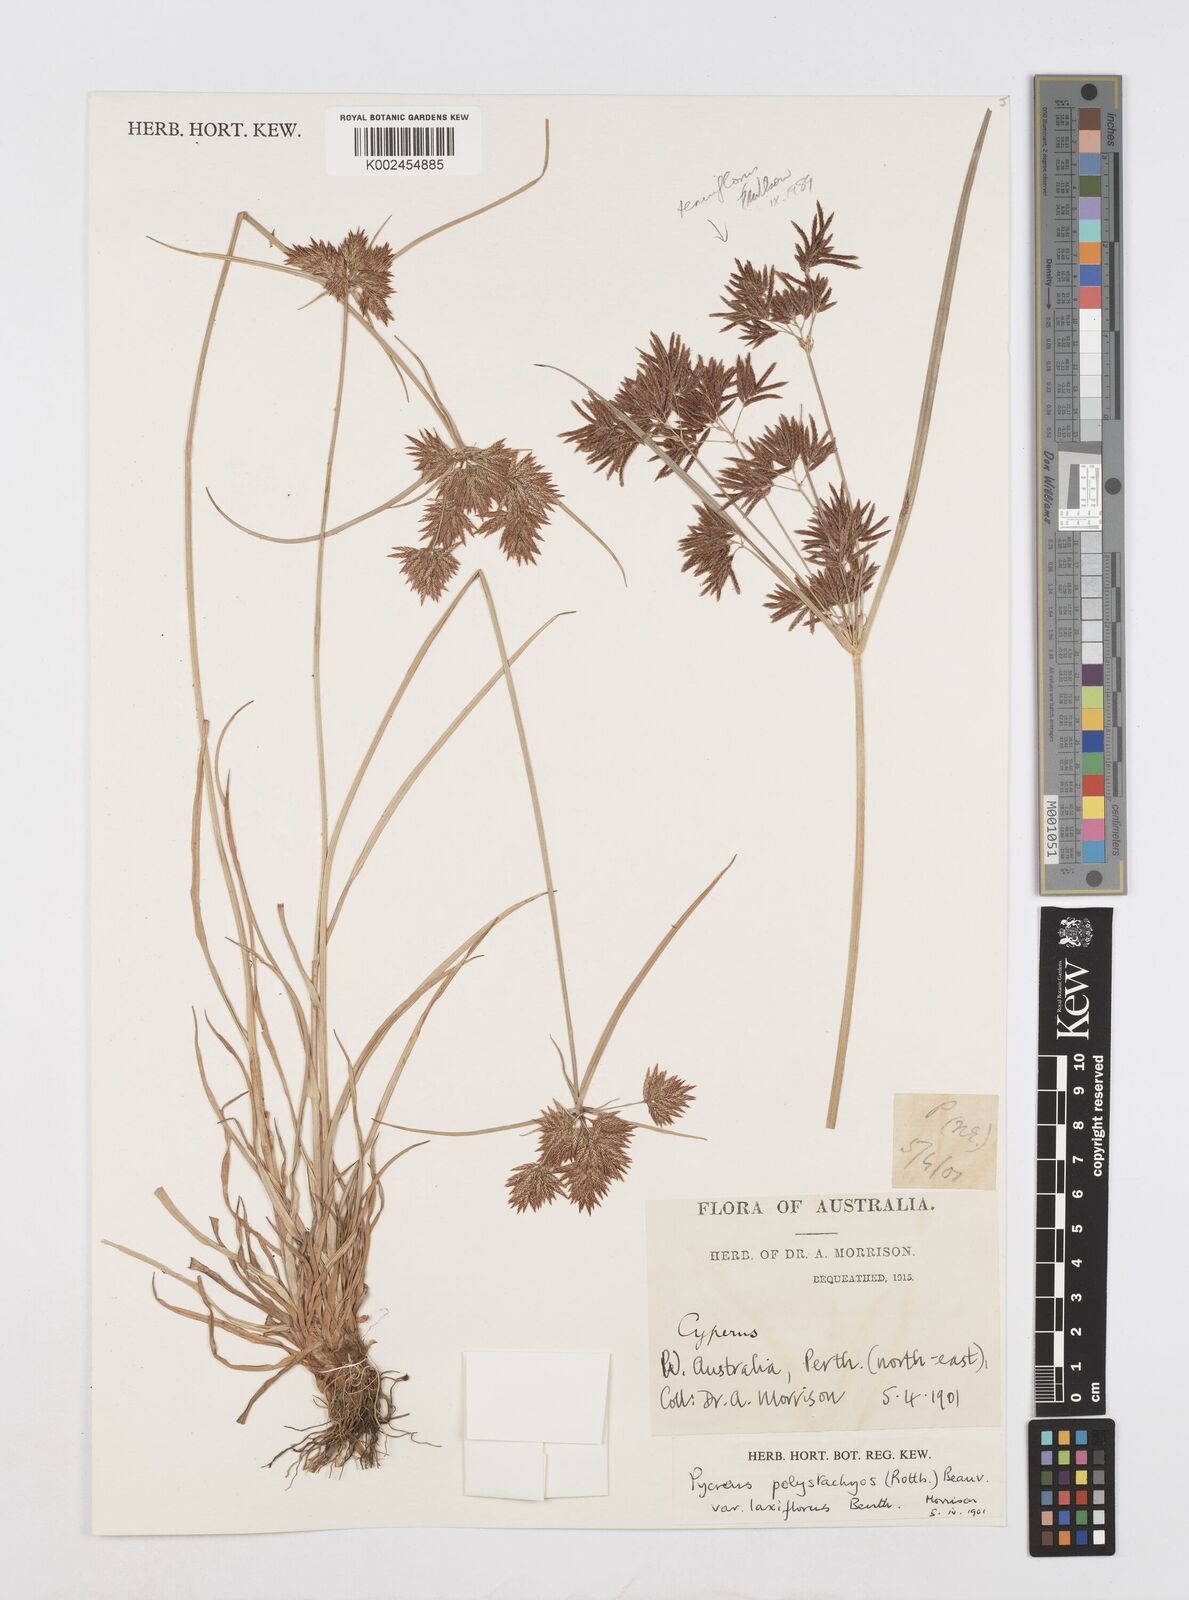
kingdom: Plantae
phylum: Tracheophyta
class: Liliopsida
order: Poales
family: Cyperaceae
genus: Cyperus
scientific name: Cyperus polystachyos
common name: Bunchy flat sedge
